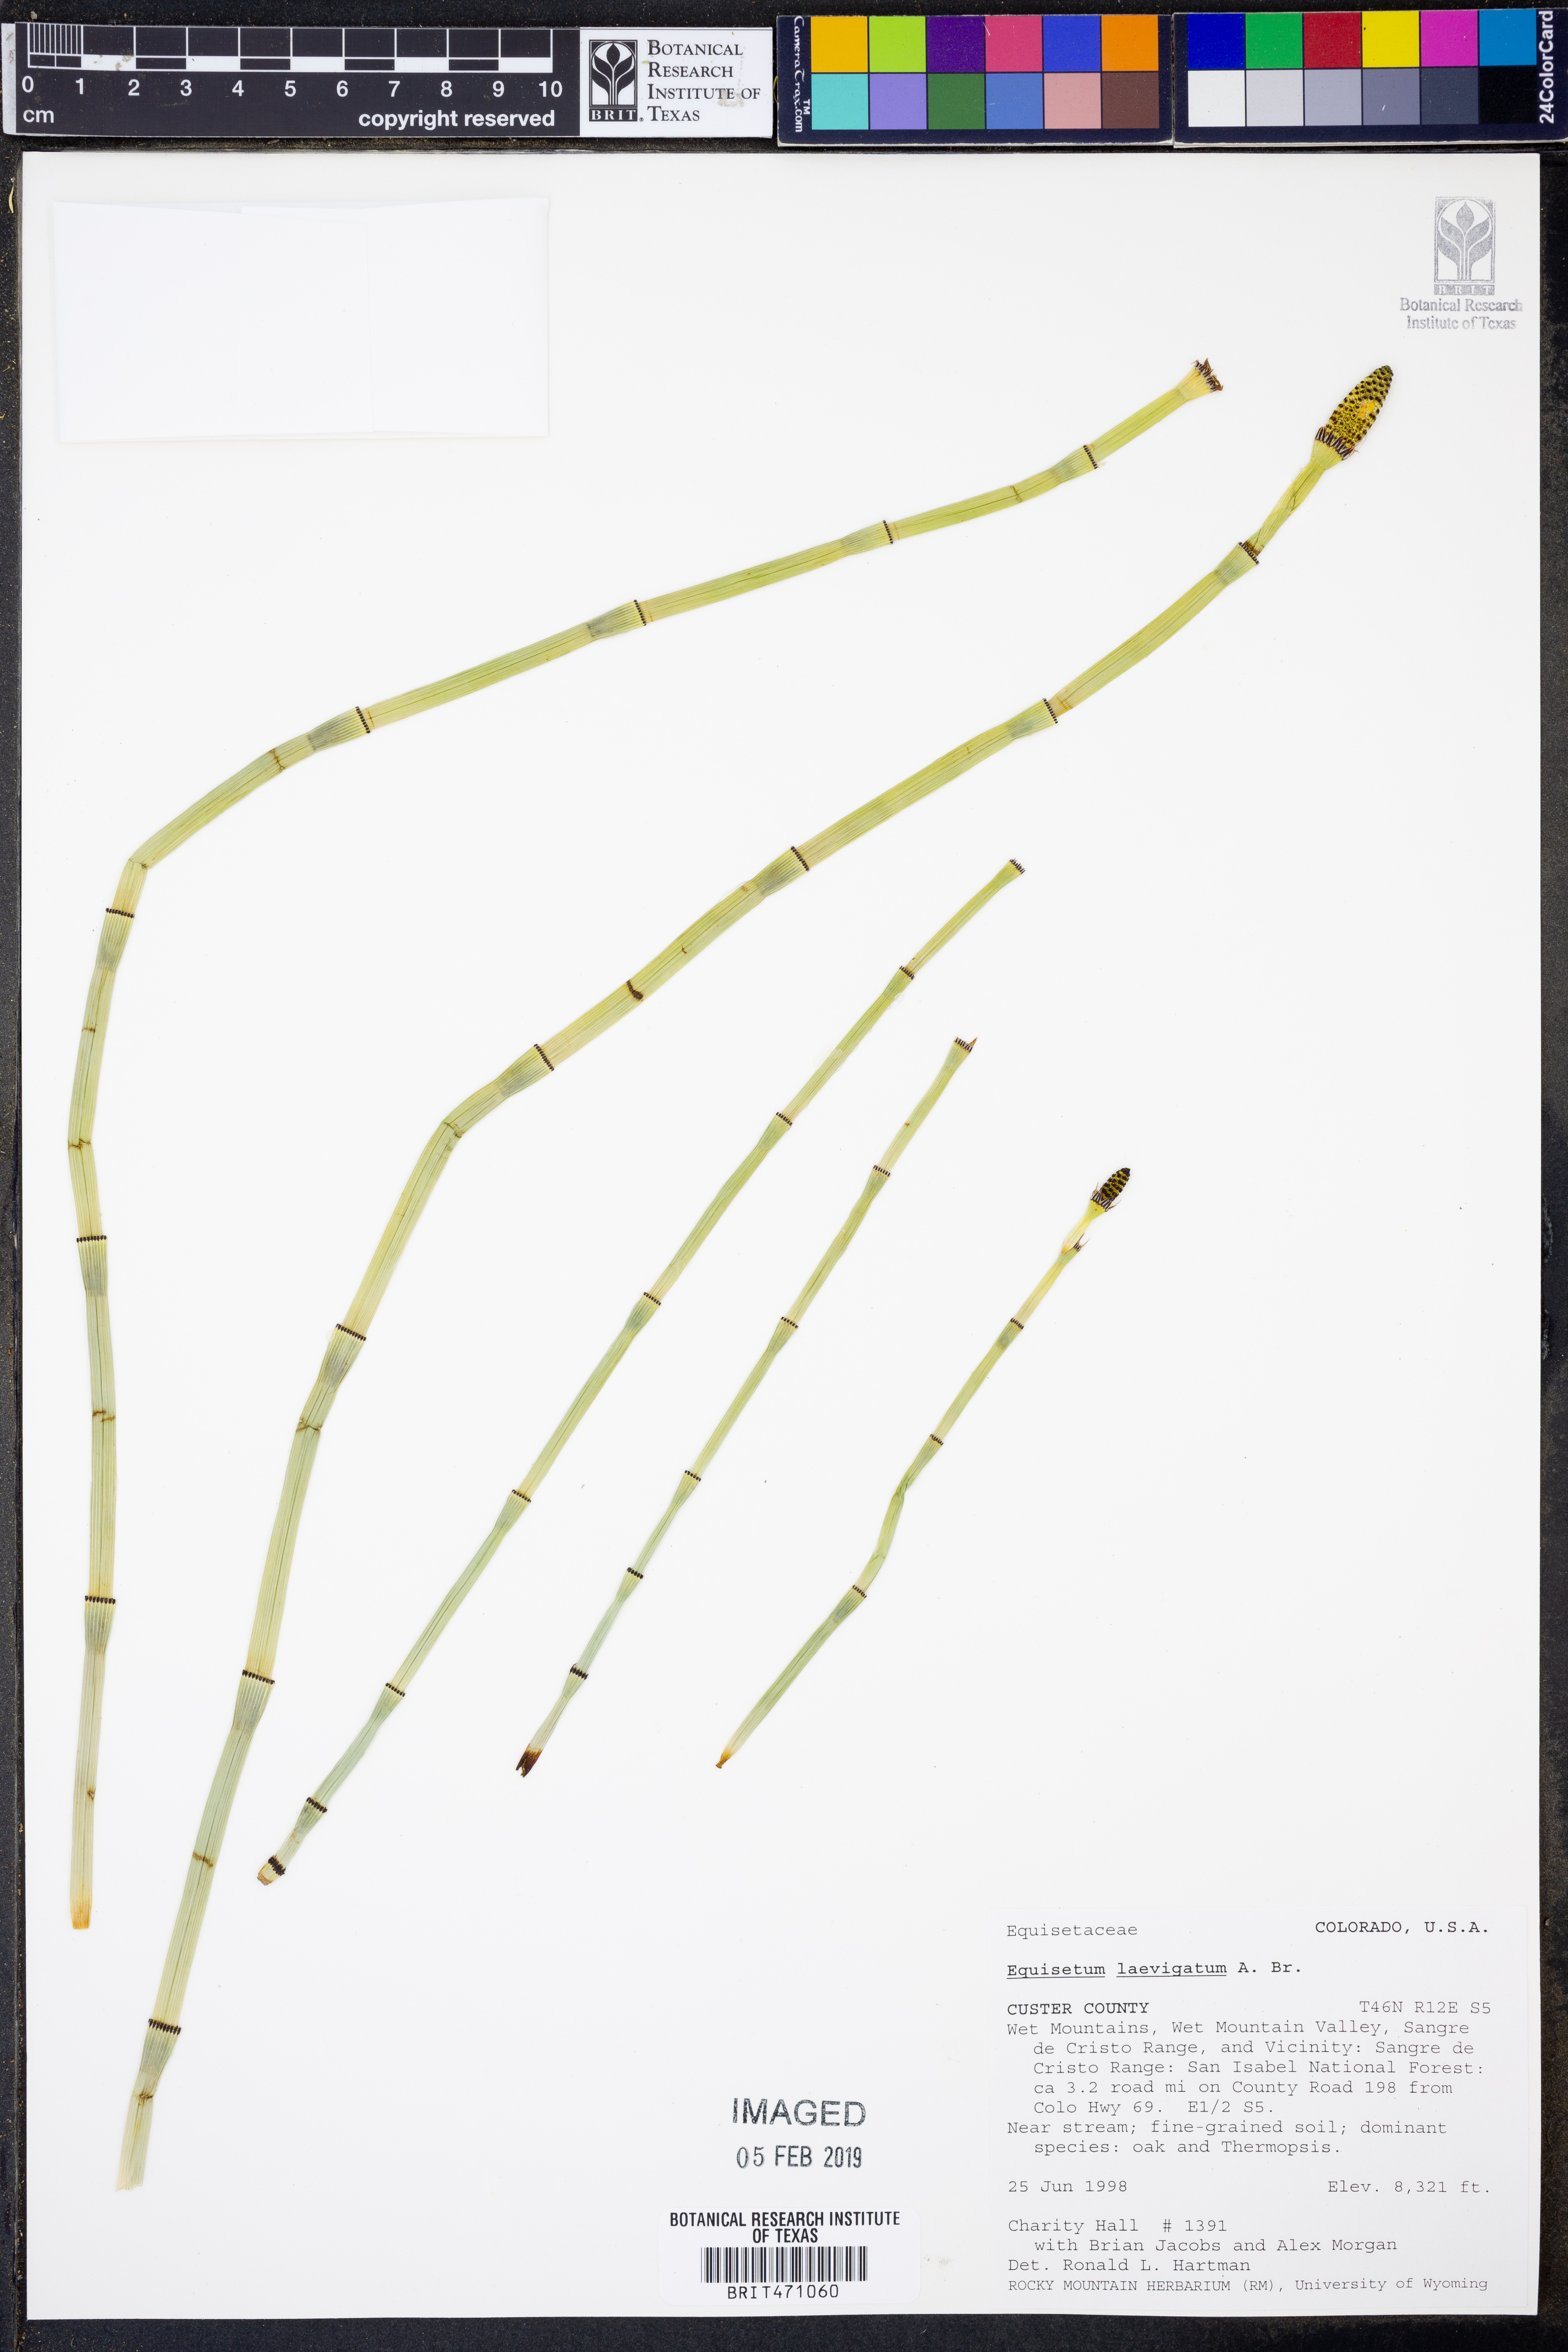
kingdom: Plantae
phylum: Tracheophyta
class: Polypodiopsida
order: Equisetales
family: Equisetaceae
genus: Equisetum
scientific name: Equisetum laevigatum
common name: Smooth scouring-rush
